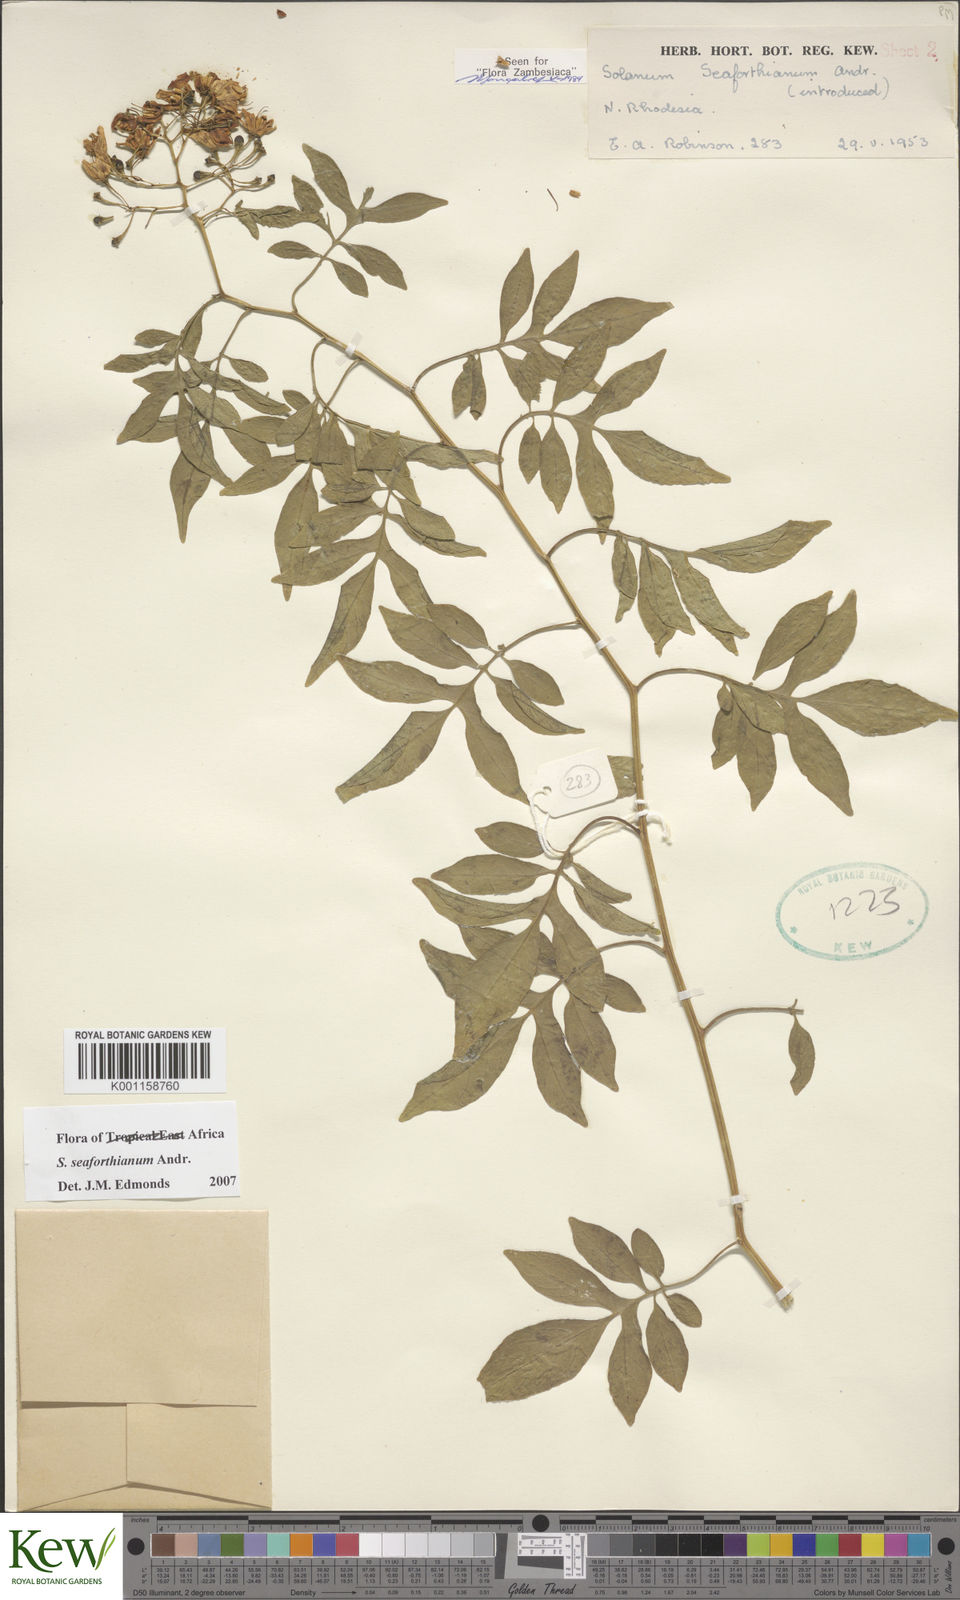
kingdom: Plantae
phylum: Tracheophyta
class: Magnoliopsida
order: Solanales
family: Solanaceae
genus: Solanum
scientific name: Solanum seaforthianum
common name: Brazilian nightshade
